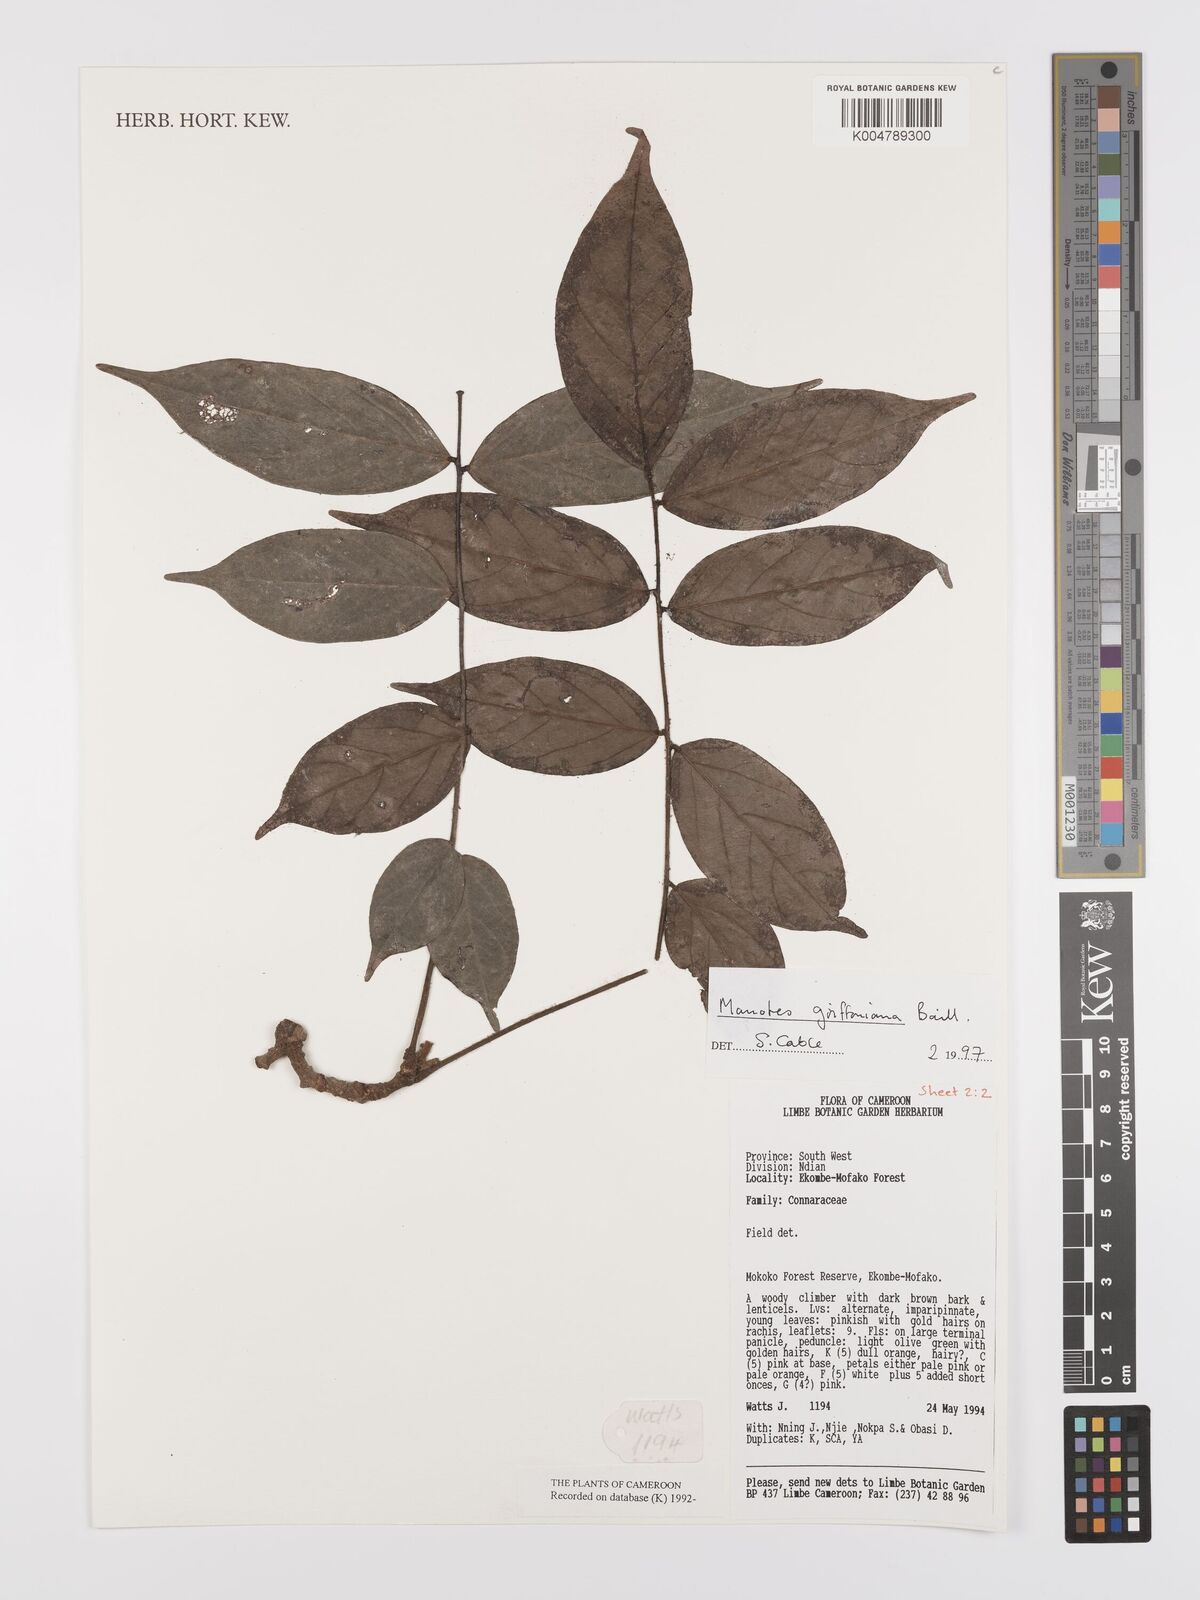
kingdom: Plantae
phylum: Tracheophyta
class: Magnoliopsida
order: Oxalidales
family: Connaraceae
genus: Manotes
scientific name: Manotes griffoniana
